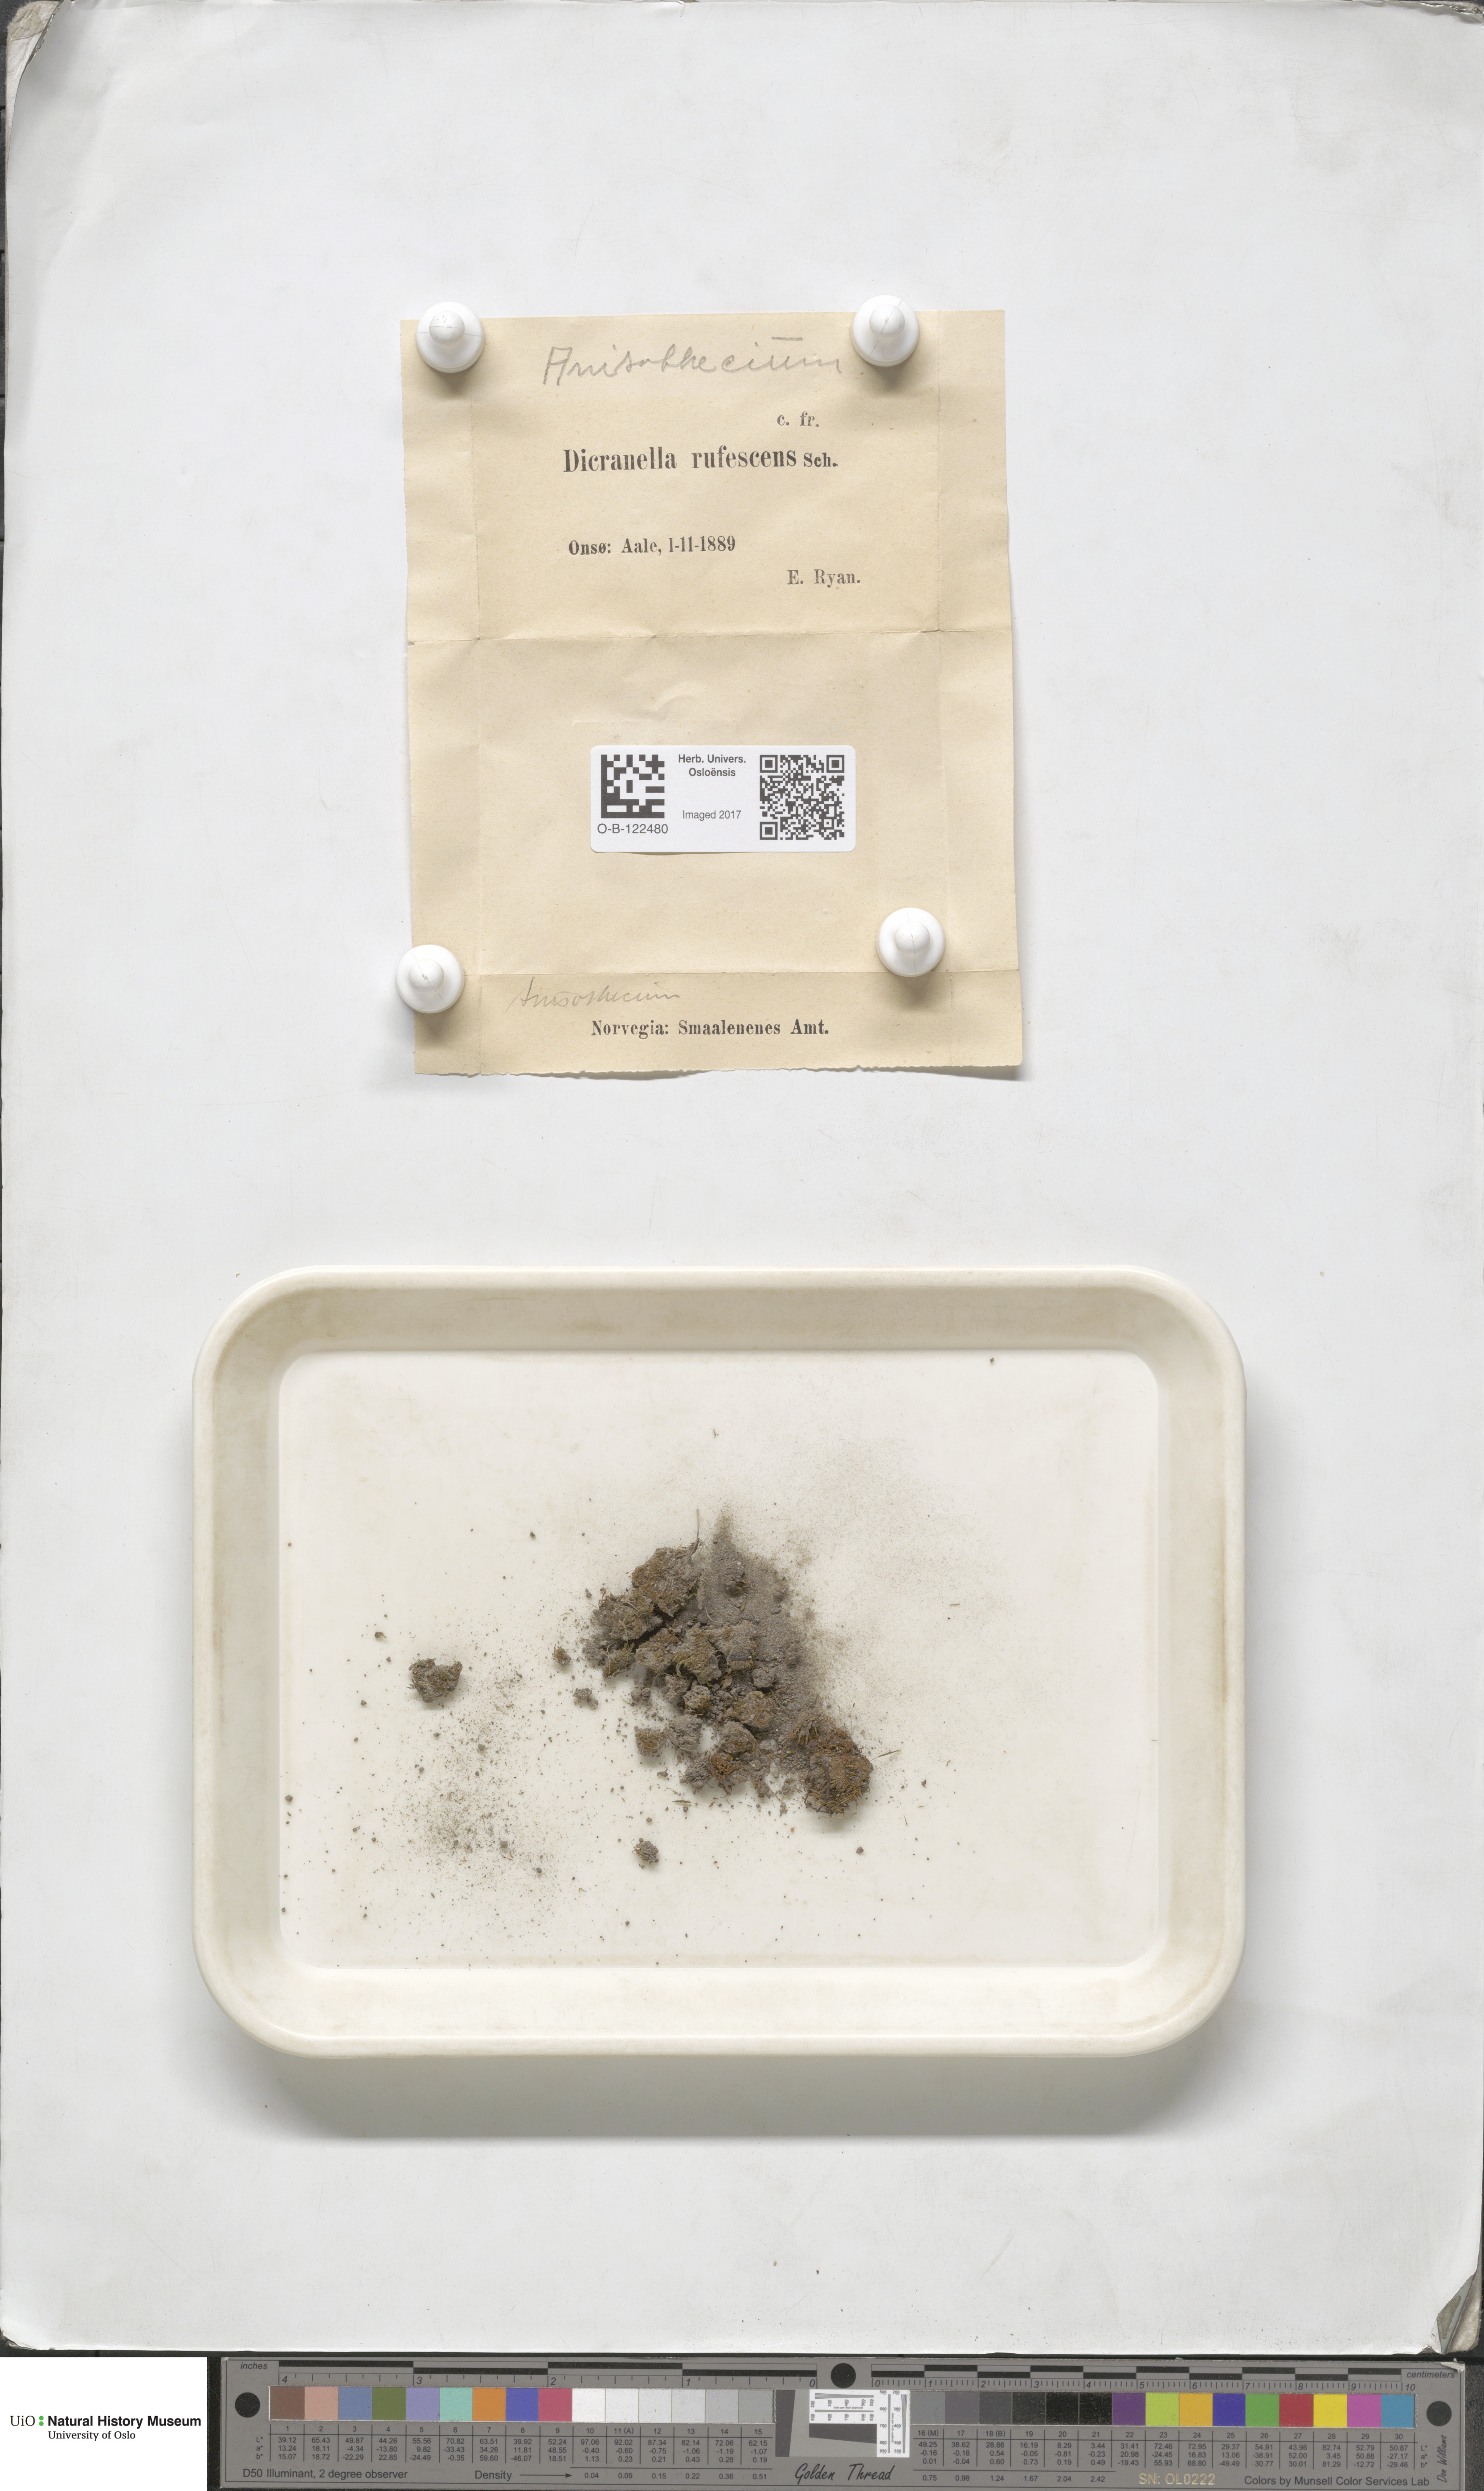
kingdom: Plantae
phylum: Bryophyta
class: Bryopsida
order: Dicranales
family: Dicranellaceae
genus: Dicranella
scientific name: Dicranella rufescens
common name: Red forklet moss
